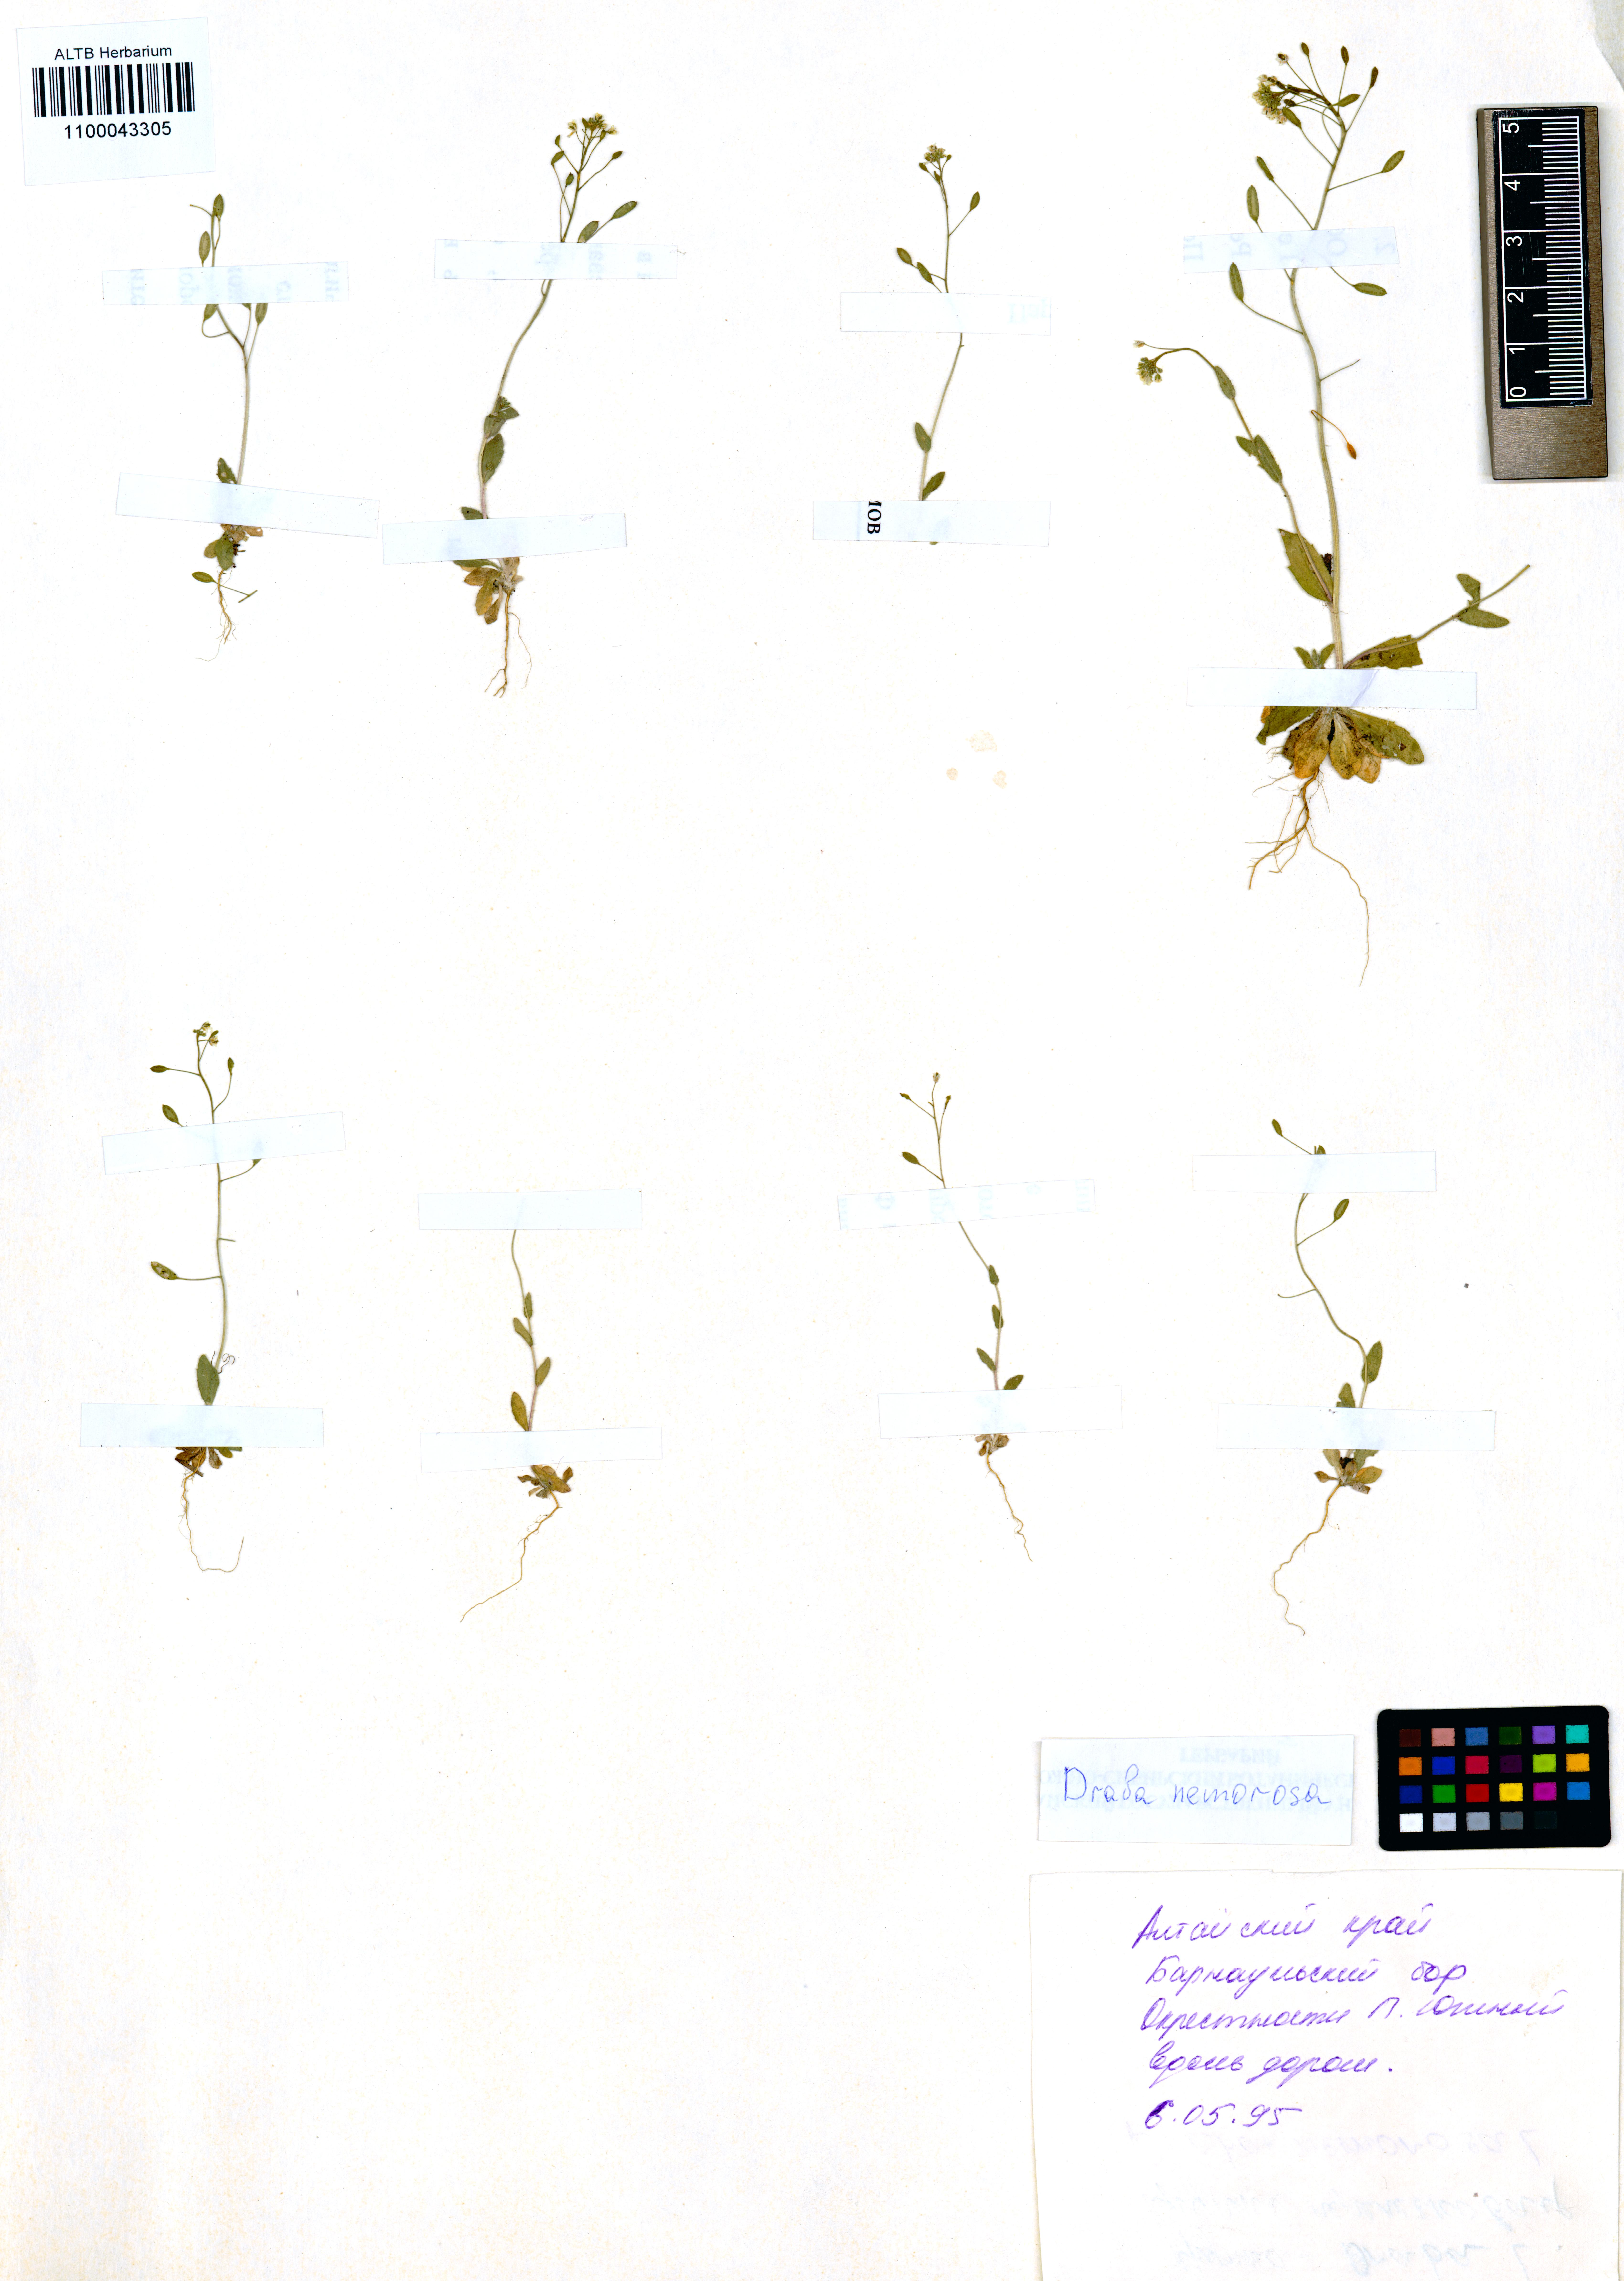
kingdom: Plantae
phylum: Tracheophyta
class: Magnoliopsida
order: Brassicales
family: Brassicaceae
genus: Draba
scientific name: Draba nemorosa
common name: Wood whitlow-grass
